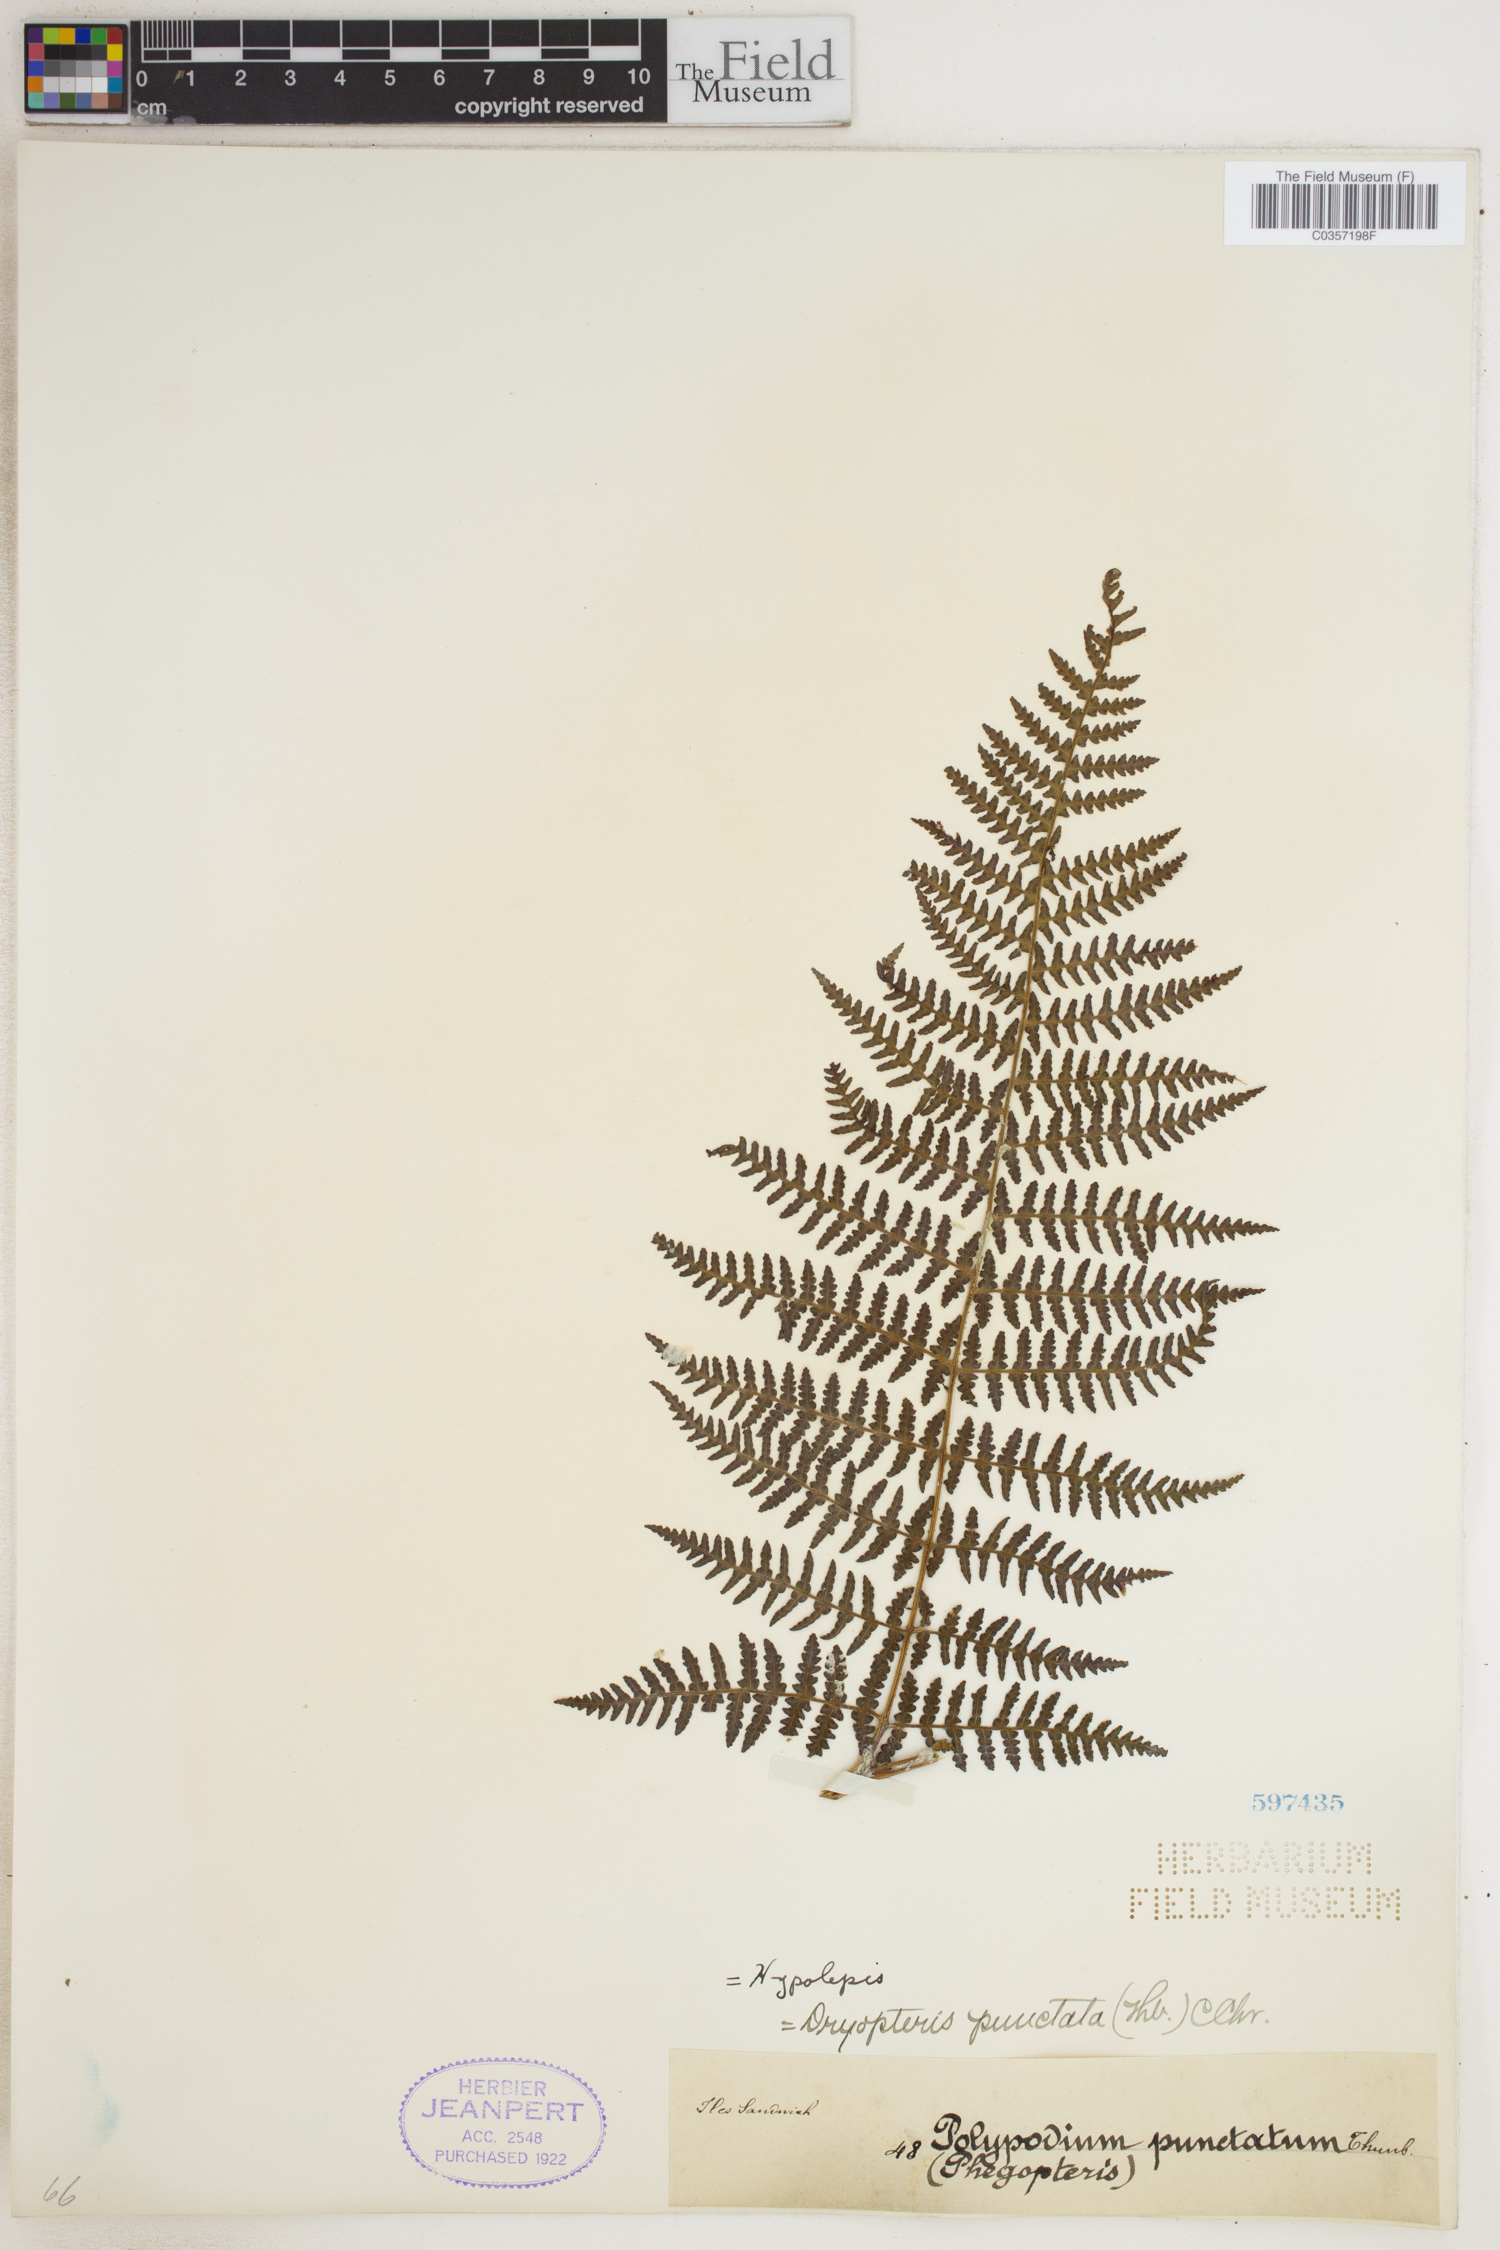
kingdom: Plantae
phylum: Tracheophyta
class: Polypodiopsida
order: Polypodiales
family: Dennstaedtiaceae
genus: Hypolepis
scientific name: Hypolepis punctata
